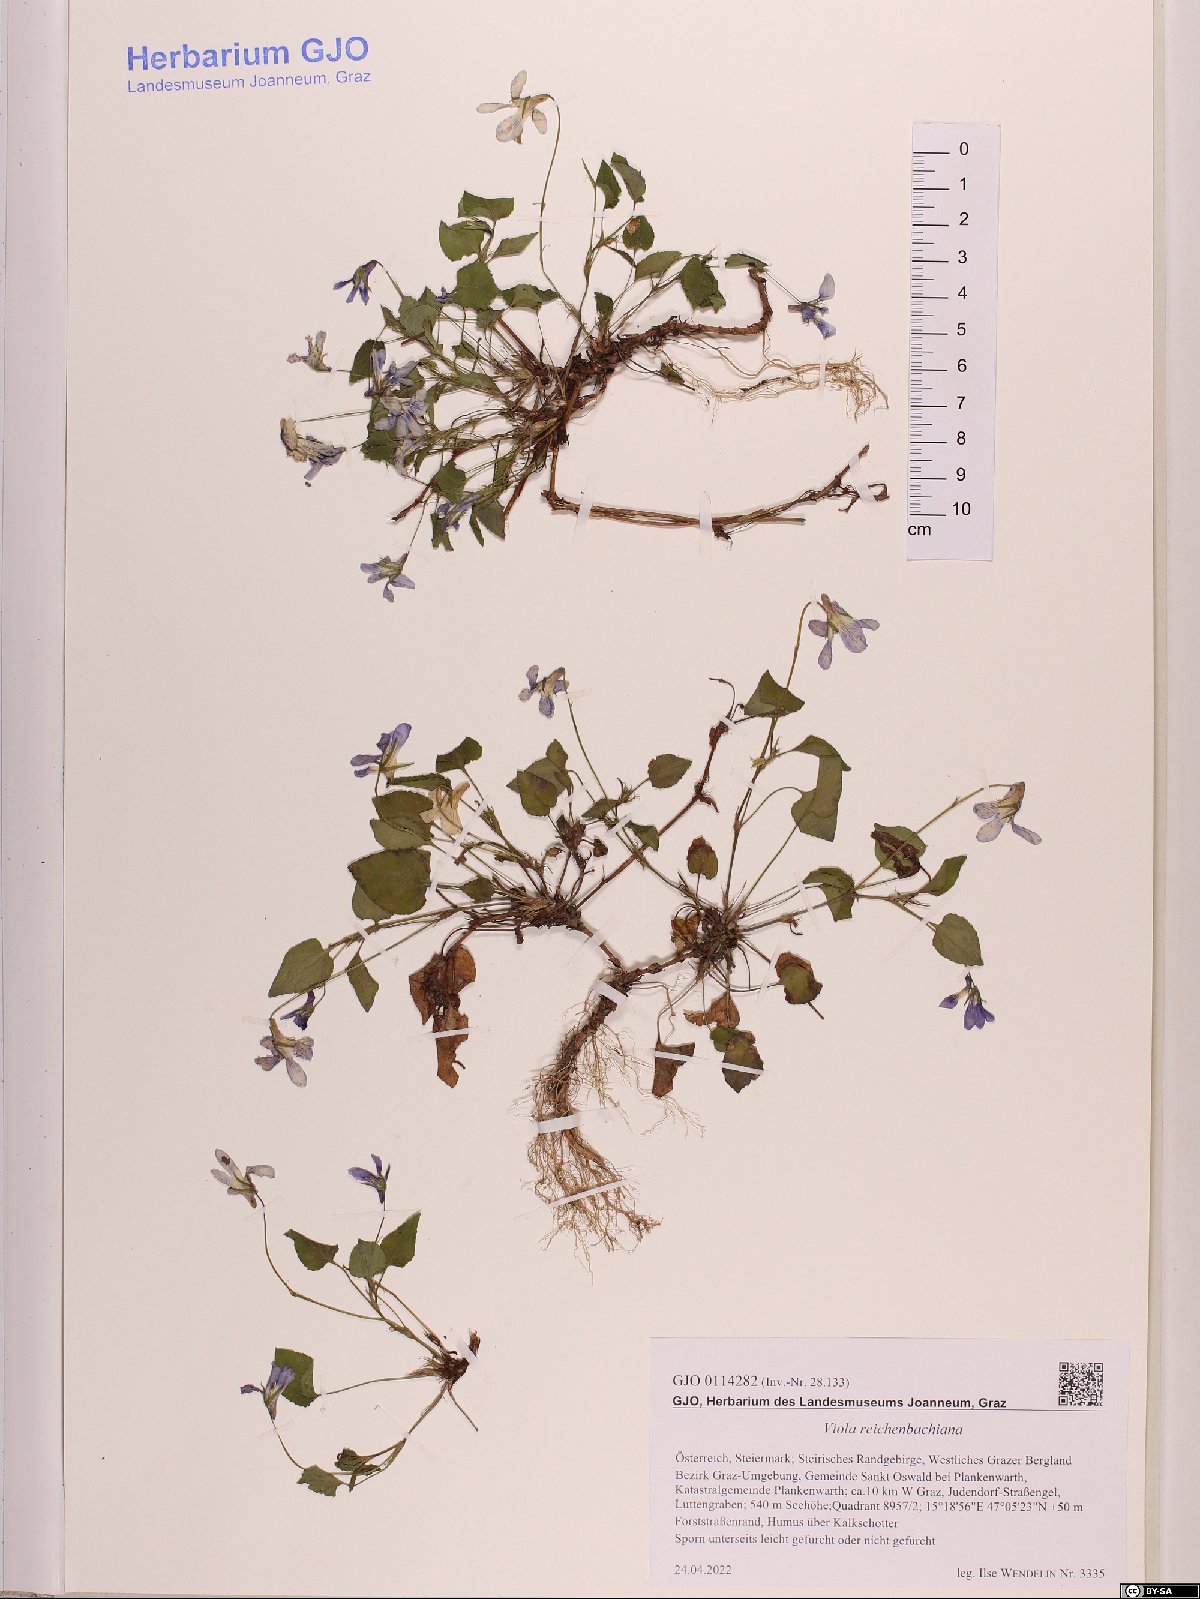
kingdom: Plantae
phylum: Tracheophyta
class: Magnoliopsida
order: Malpighiales
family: Violaceae
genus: Viola
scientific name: Viola reichenbachiana
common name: Early dog-violet
